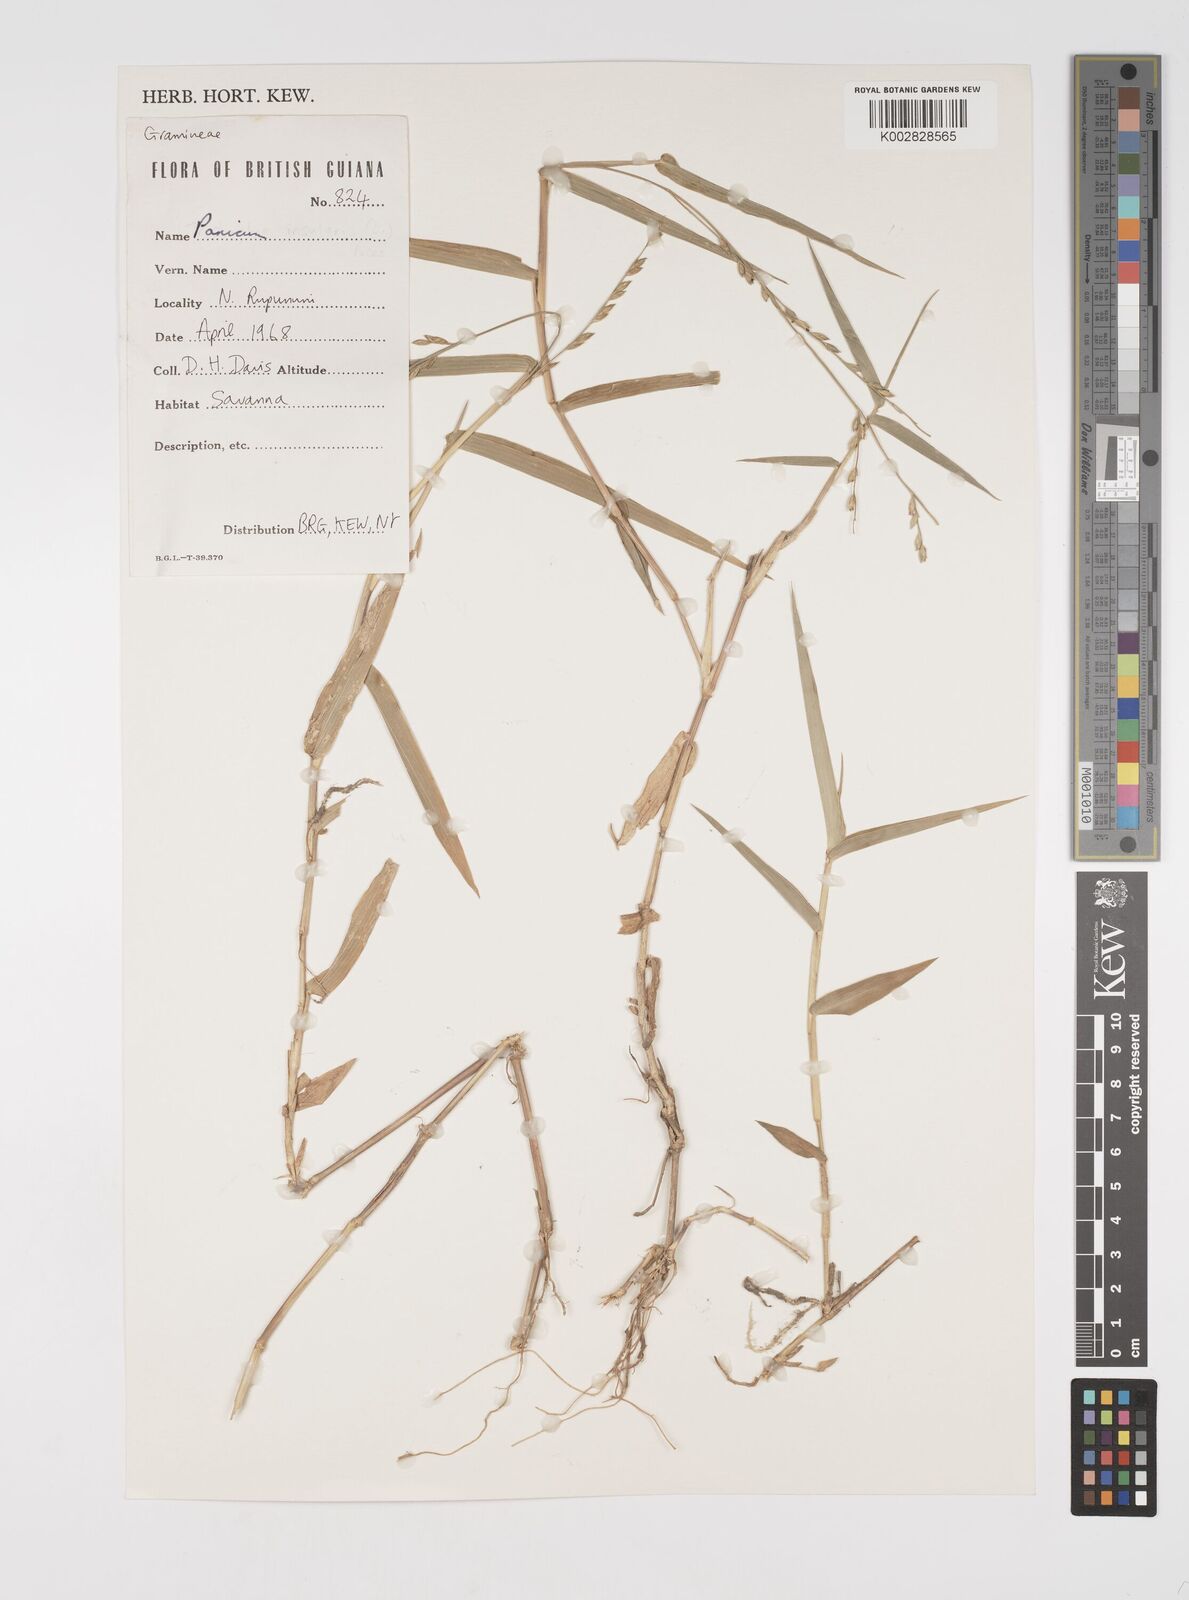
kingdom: Plantae
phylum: Tracheophyta
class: Liliopsida
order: Poales
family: Poaceae
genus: Acroceras
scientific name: Acroceras zizanioides
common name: Oat grass
